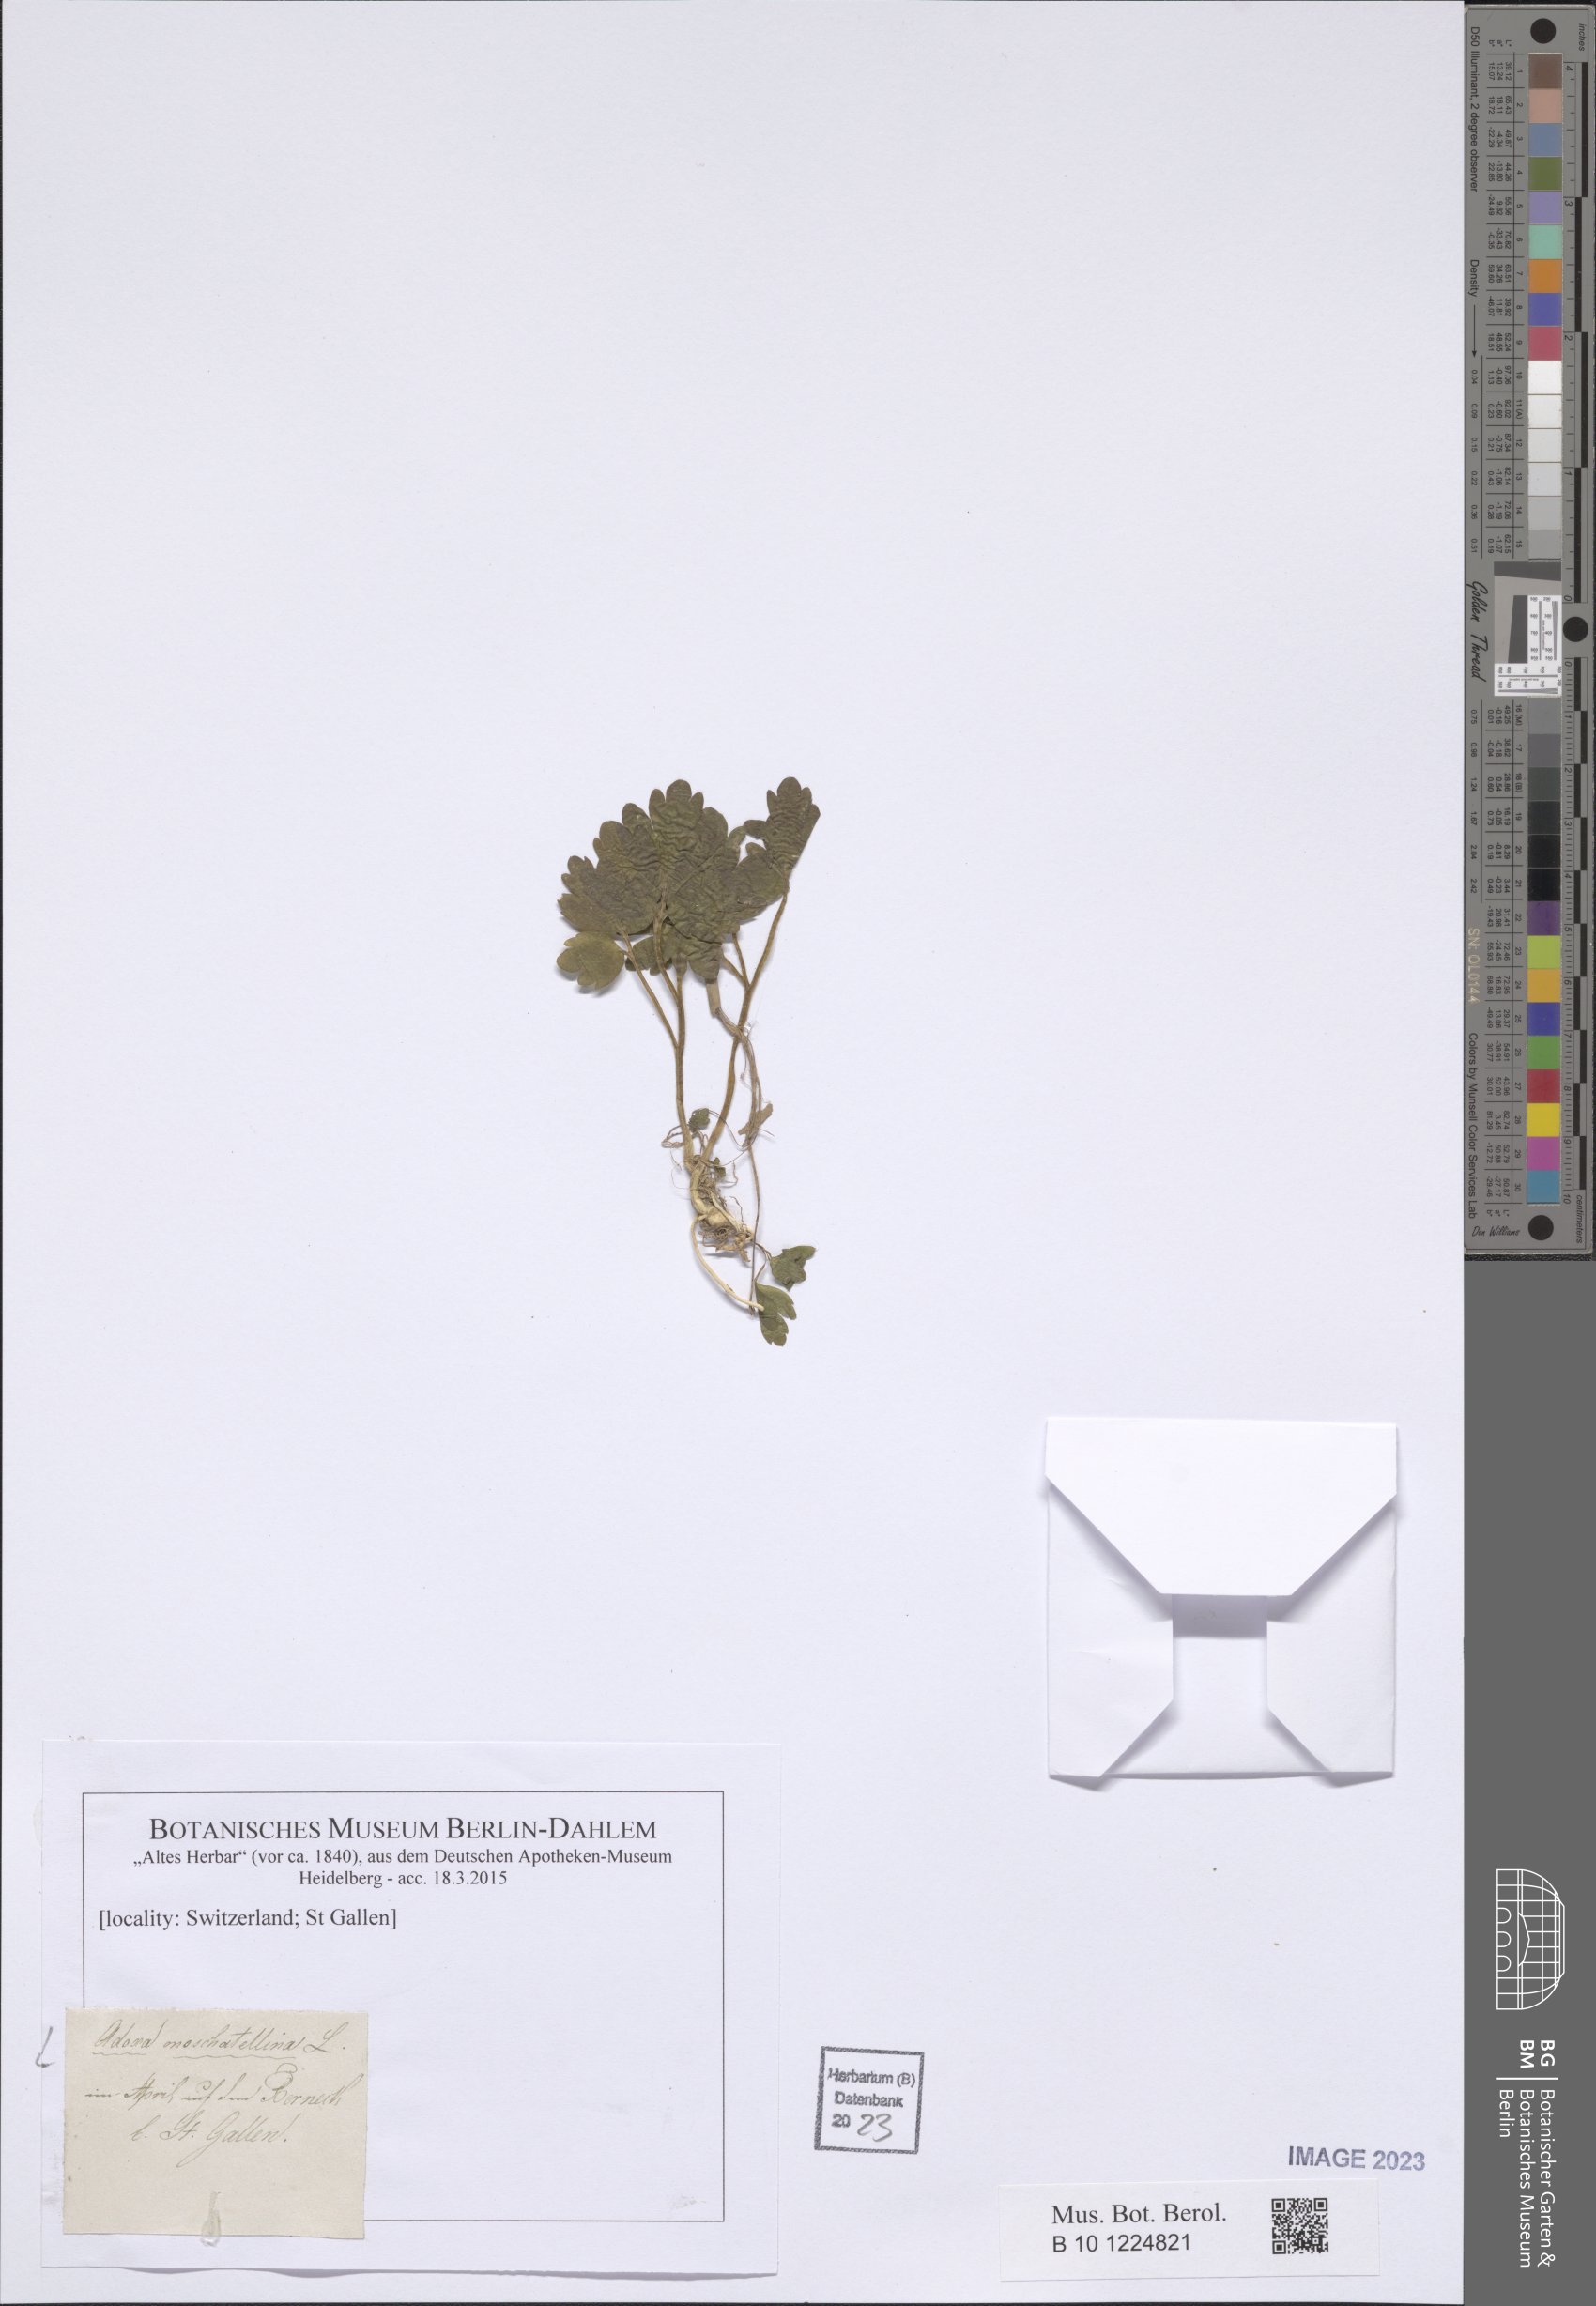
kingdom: Plantae
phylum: Tracheophyta
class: Magnoliopsida
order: Dipsacales
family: Viburnaceae
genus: Adoxa
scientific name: Adoxa moschatellina
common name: Moschatel
